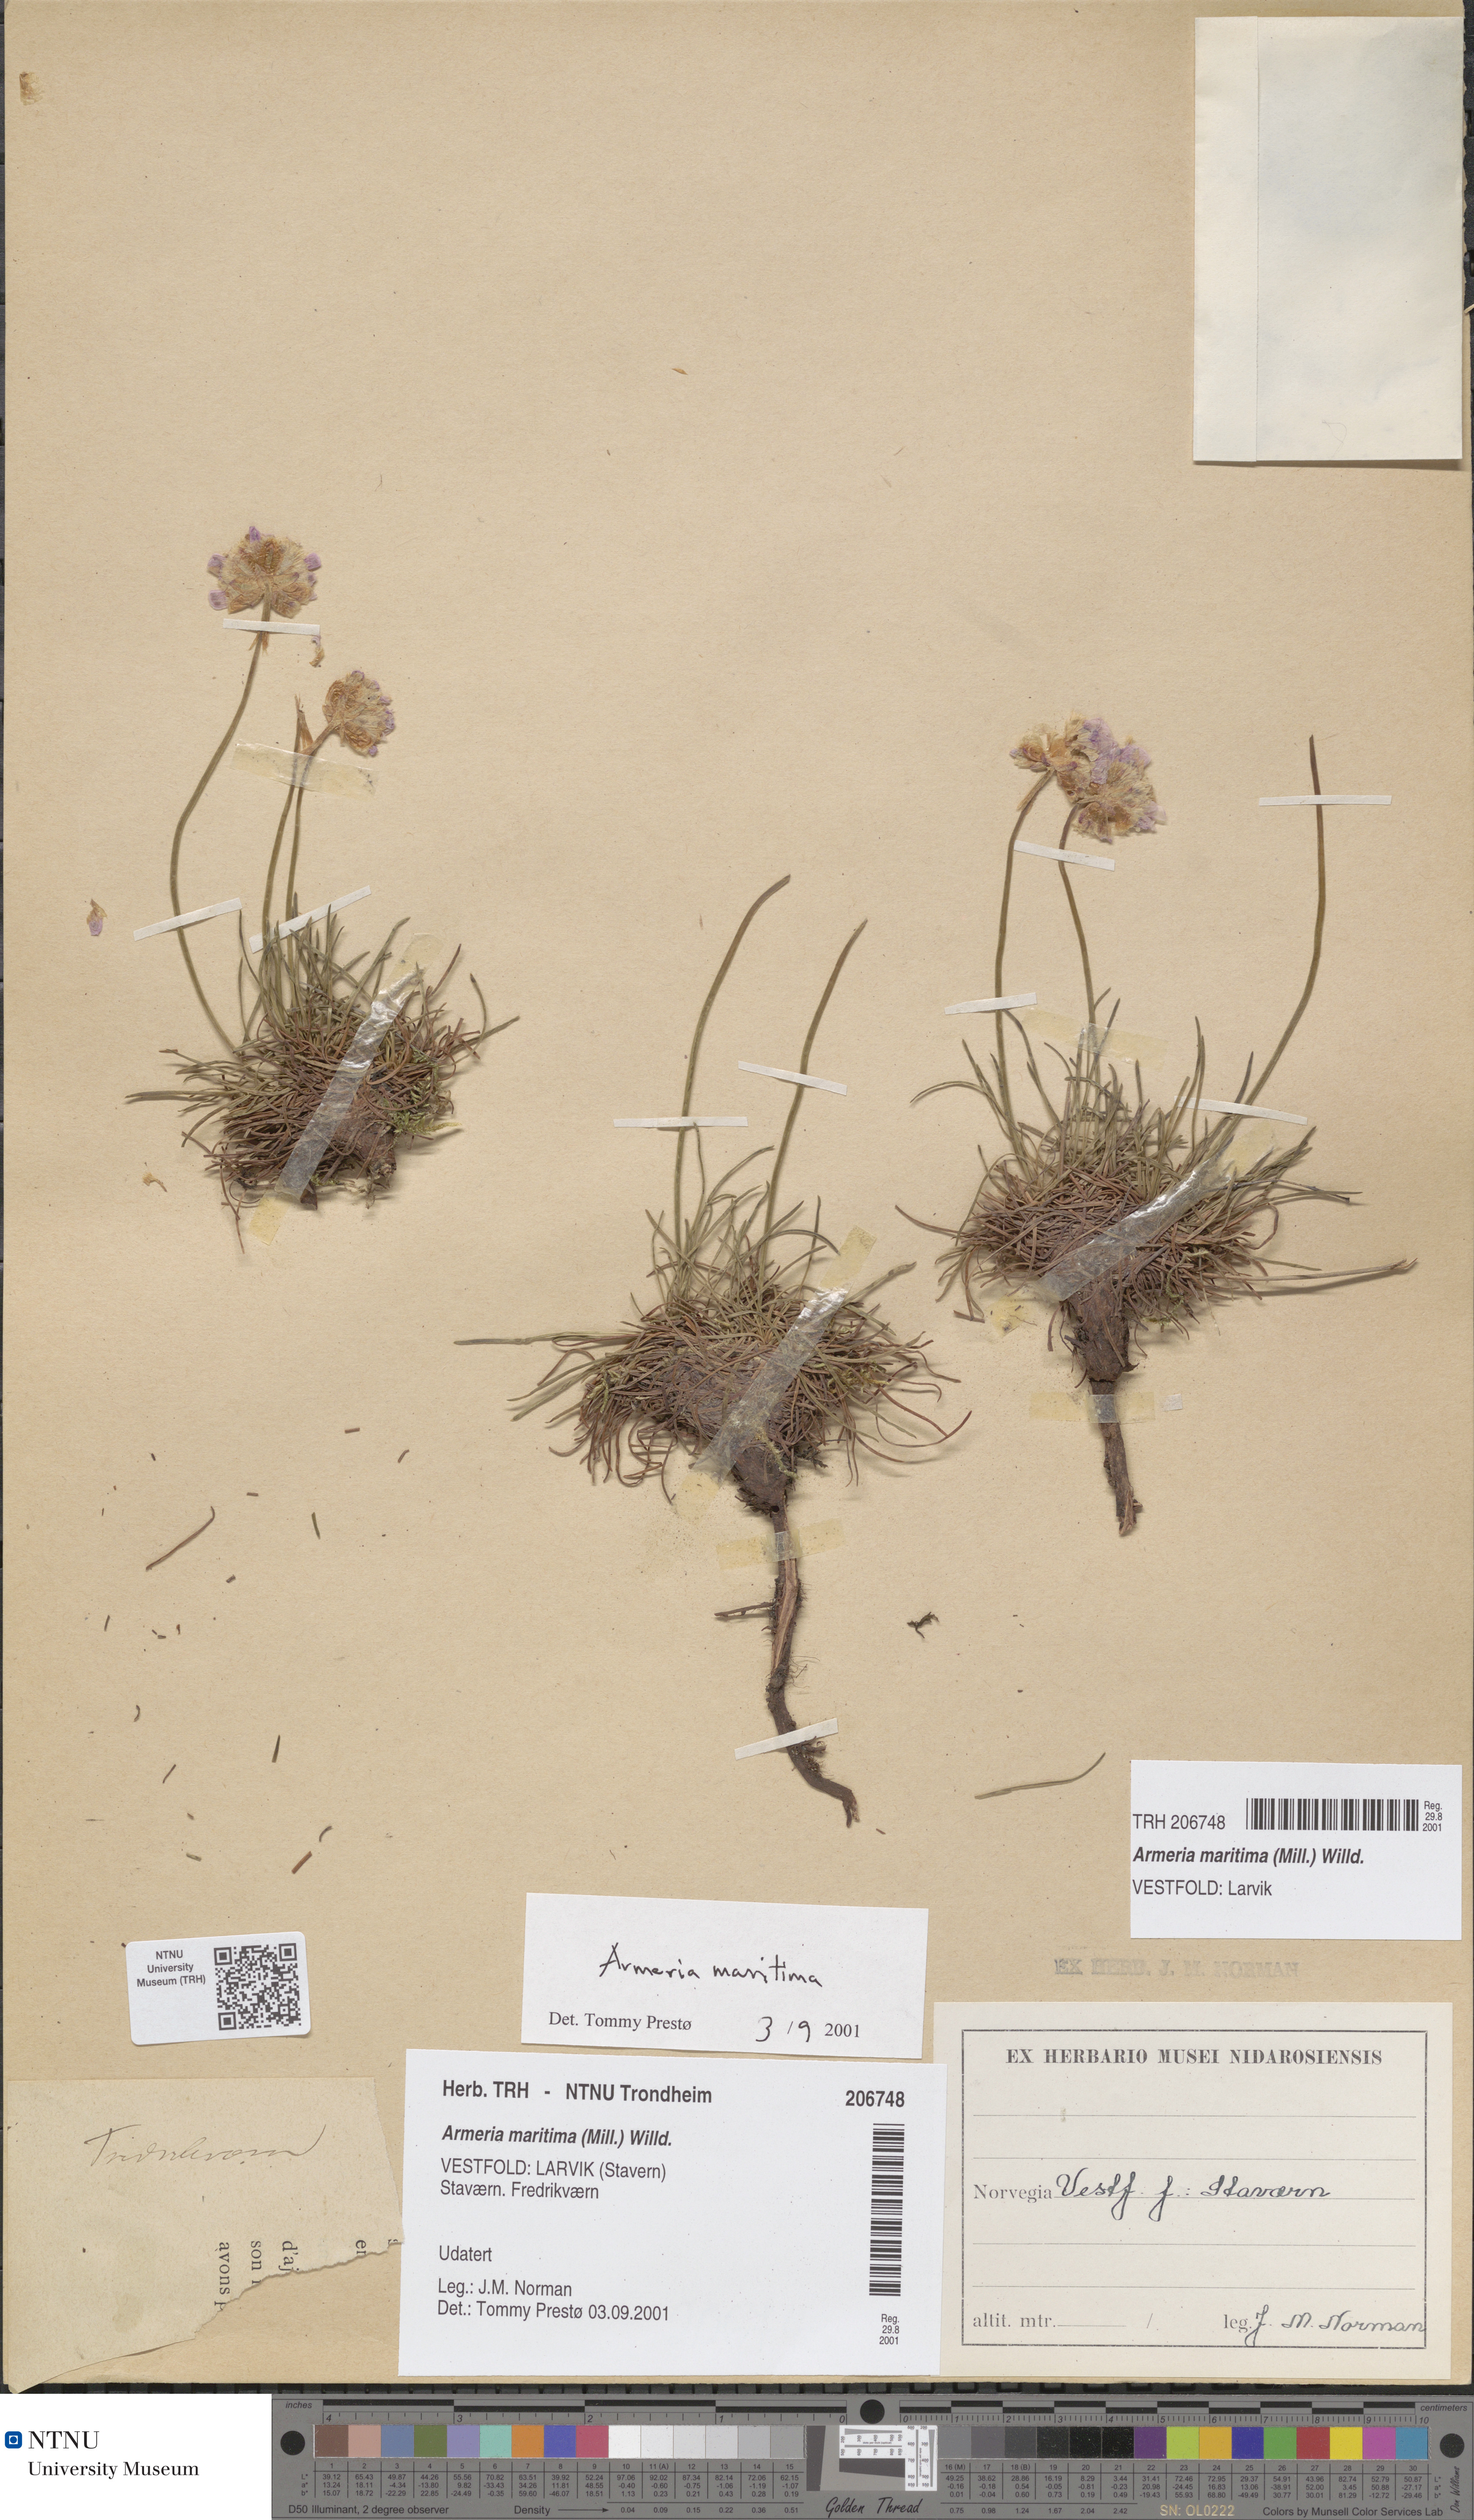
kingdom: Plantae
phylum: Tracheophyta
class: Magnoliopsida
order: Caryophyllales
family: Plumbaginaceae
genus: Armeria
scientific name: Armeria maritima
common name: Thrift
